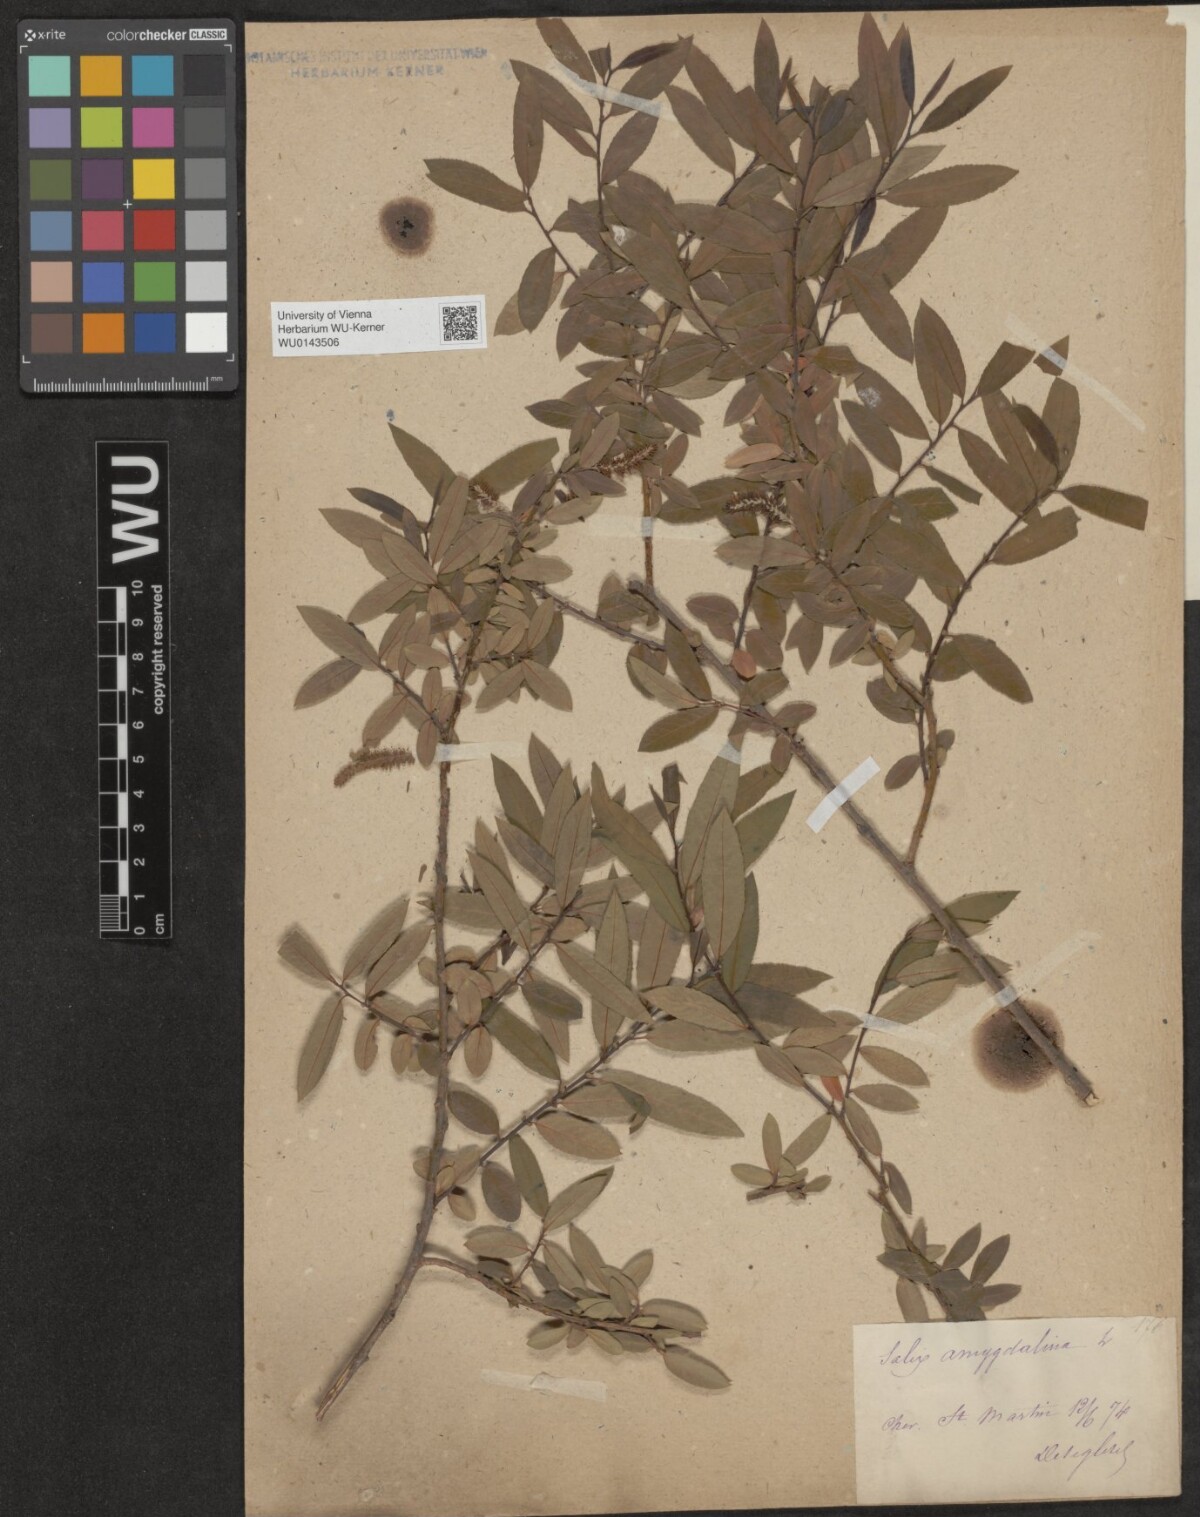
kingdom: Plantae
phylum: Tracheophyta
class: Magnoliopsida
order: Malpighiales
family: Salicaceae
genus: Salix
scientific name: Salix triandra
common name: Almond willow
